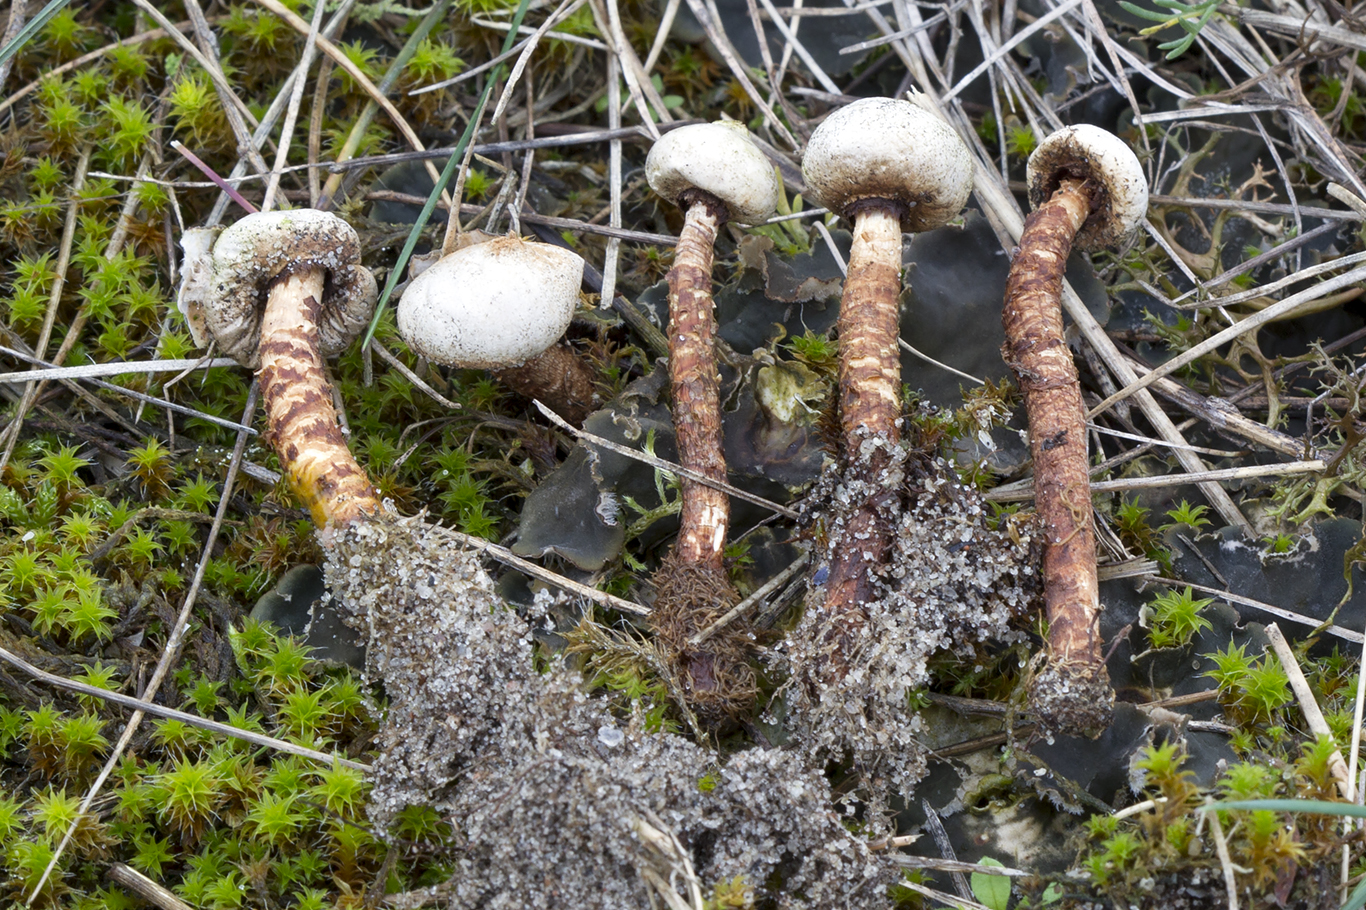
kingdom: Fungi
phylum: Basidiomycota
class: Agaricomycetes
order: Agaricales
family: Agaricaceae
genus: Tulostoma
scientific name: Tulostoma winterhoffii
